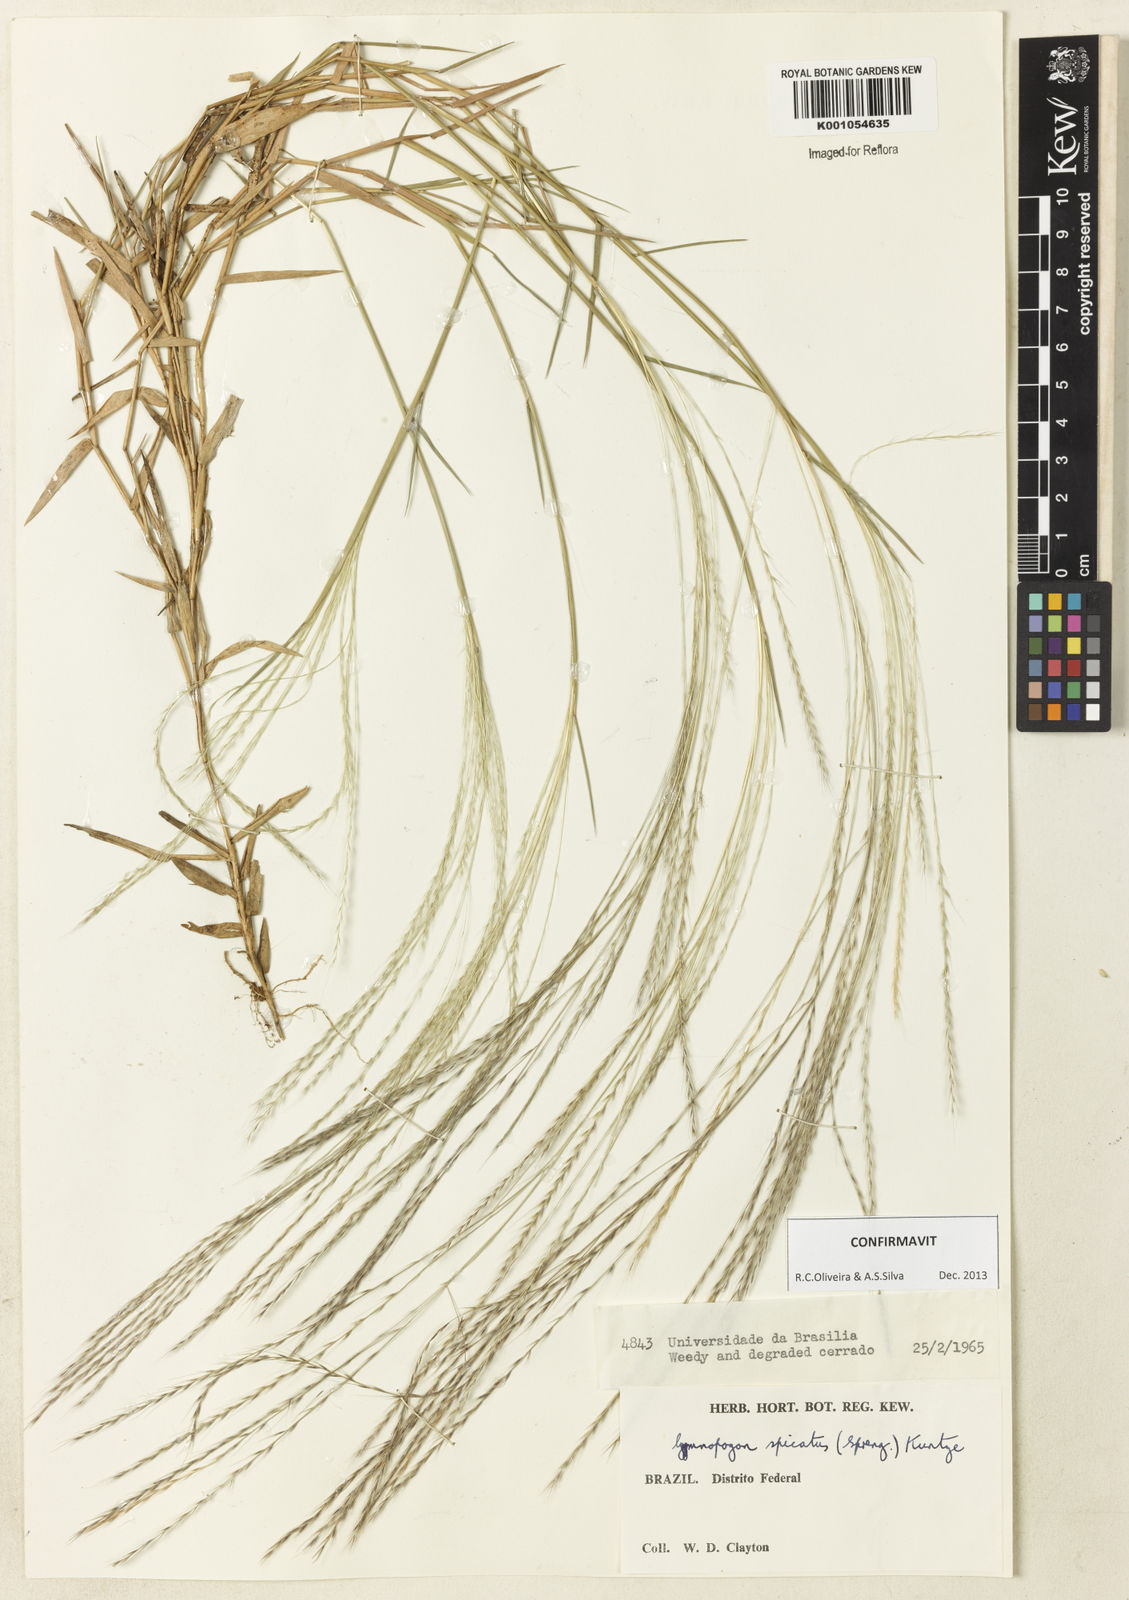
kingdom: Plantae
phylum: Tracheophyta
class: Liliopsida
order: Poales
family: Poaceae
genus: Gymnopogon
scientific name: Gymnopogon spicatus
